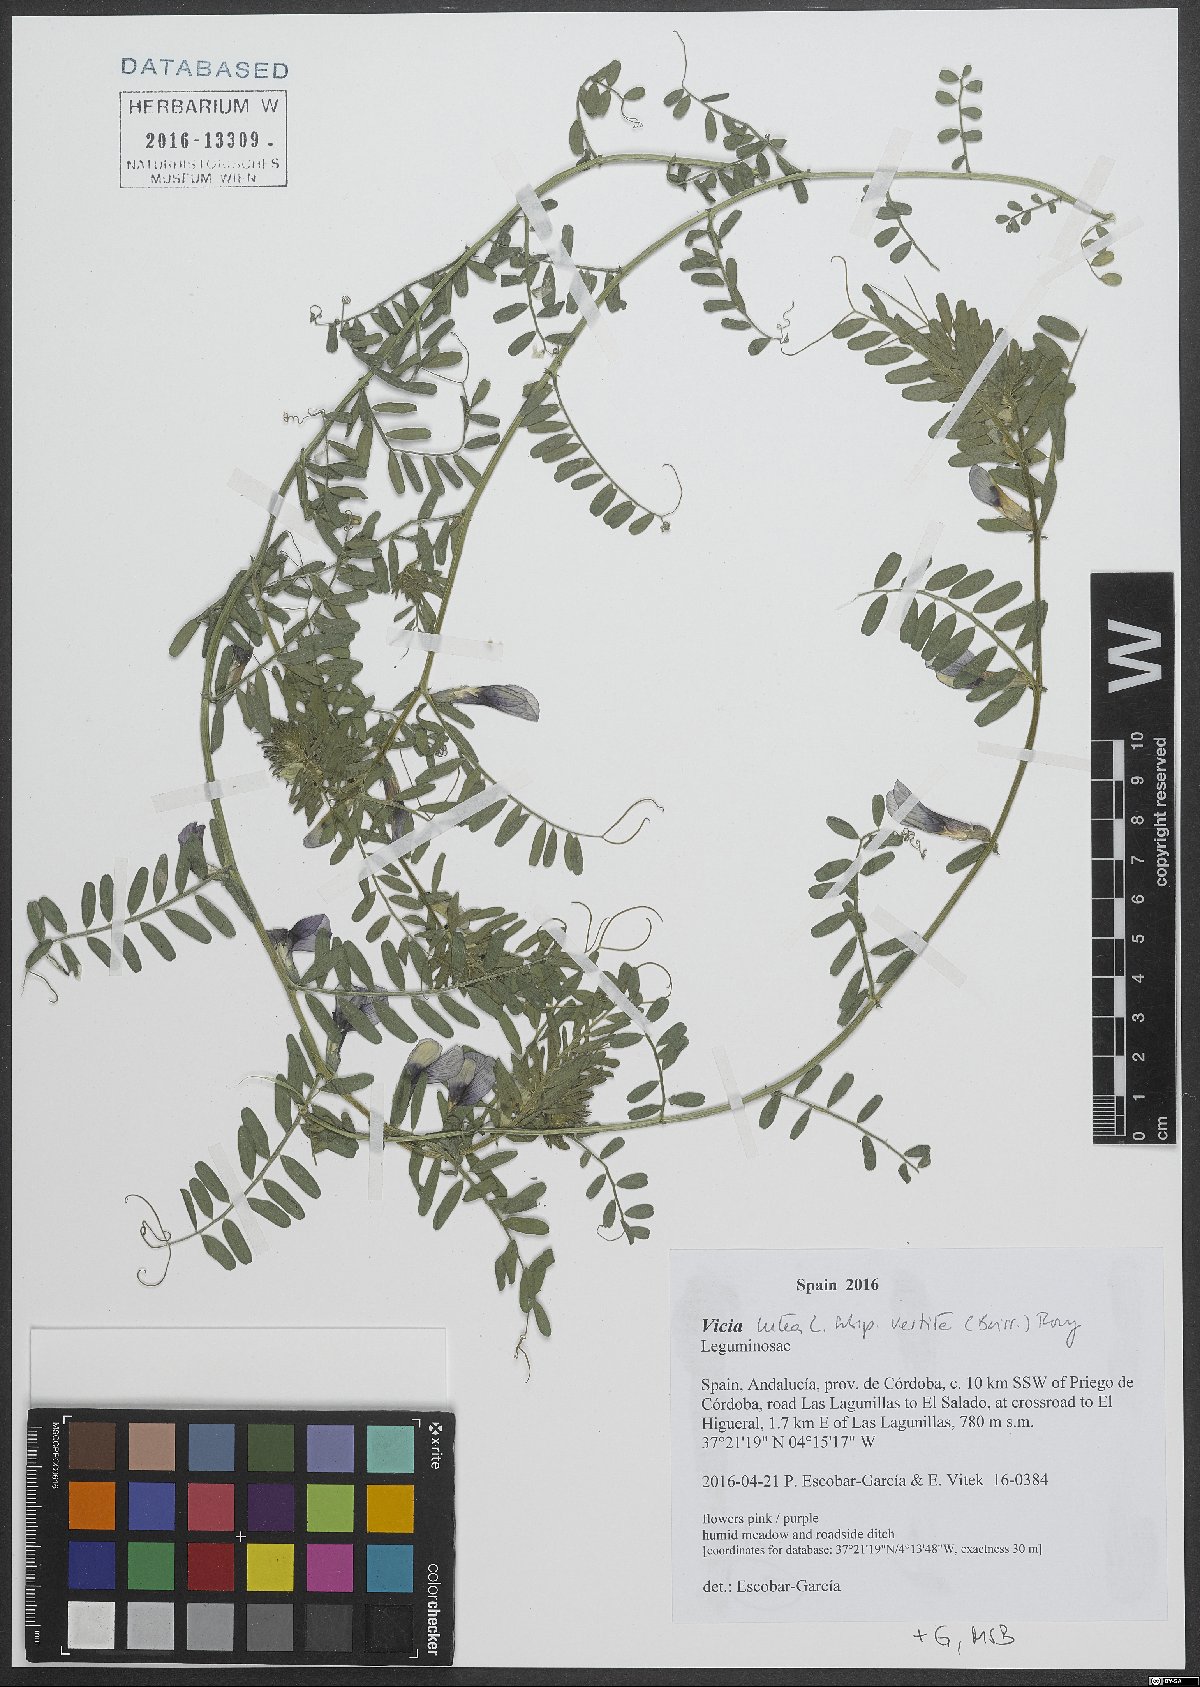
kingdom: Plantae
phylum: Tracheophyta
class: Magnoliopsida
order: Fabales
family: Fabaceae
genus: Vicia
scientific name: Vicia lutea
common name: Smooth yellow vetch
